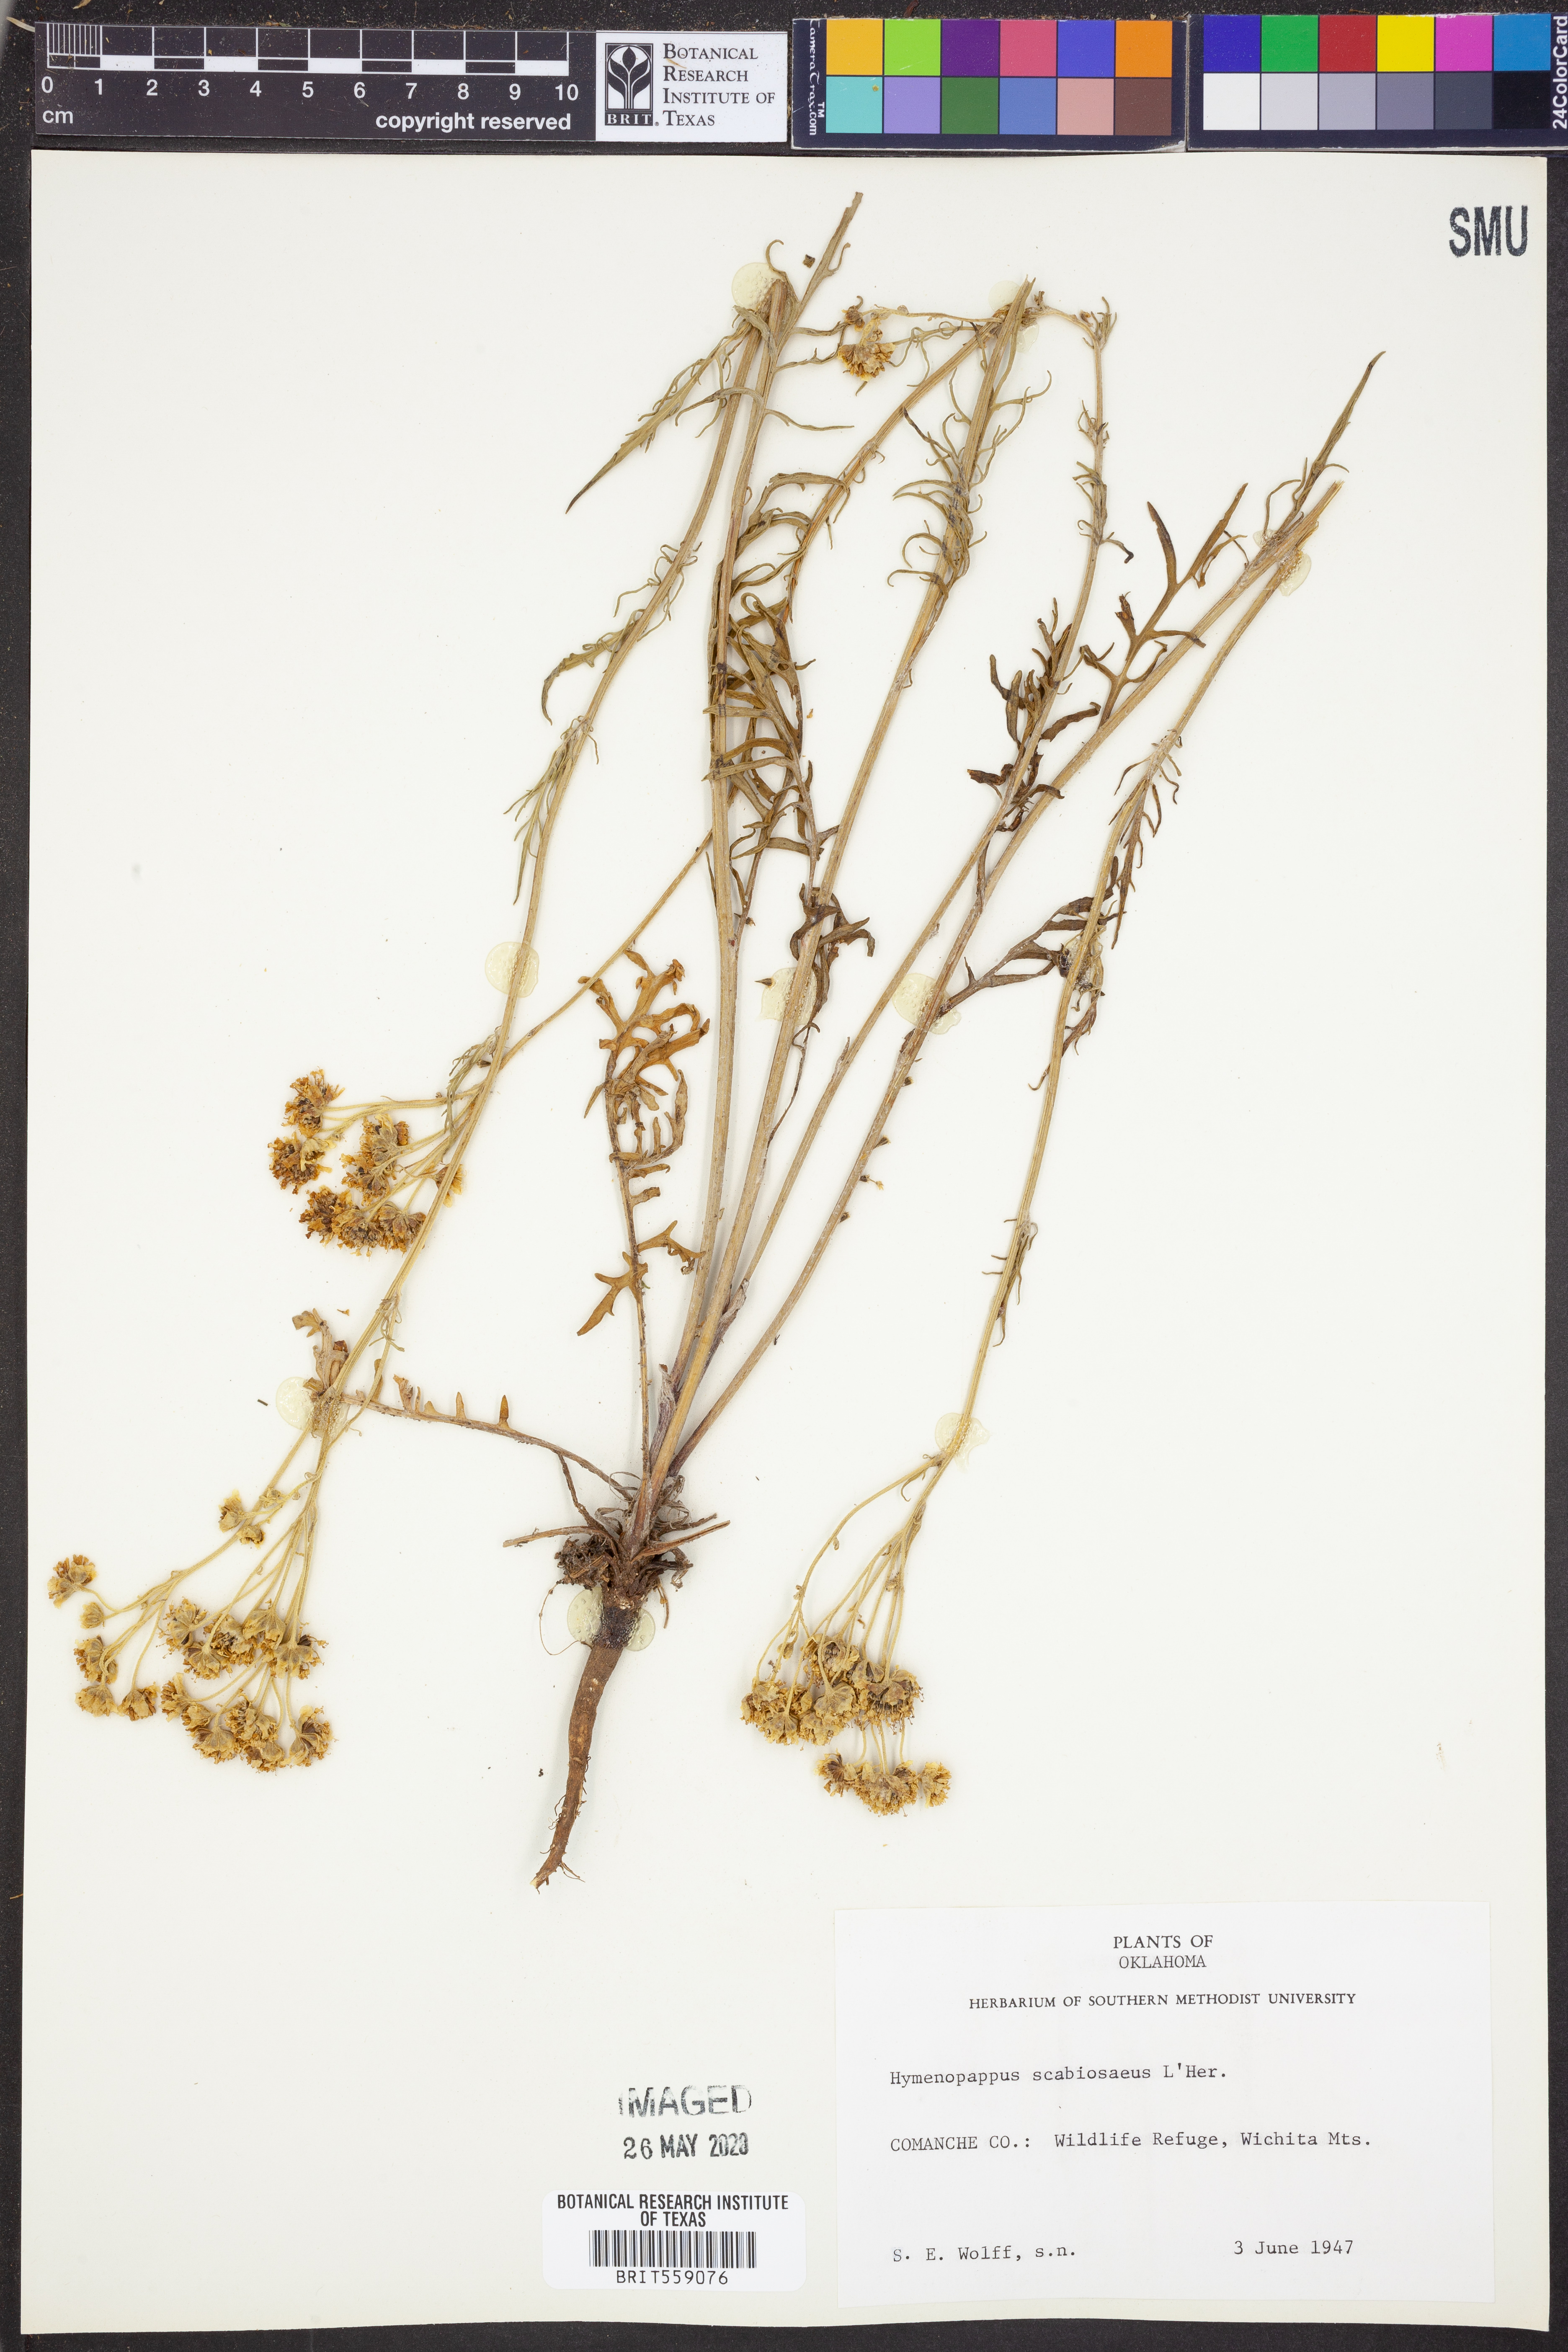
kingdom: Plantae
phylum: Tracheophyta
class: Magnoliopsida
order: Asterales
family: Asteraceae
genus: Hymenopappus
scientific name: Hymenopappus scabiosaeus
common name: Carolina woollywhite
